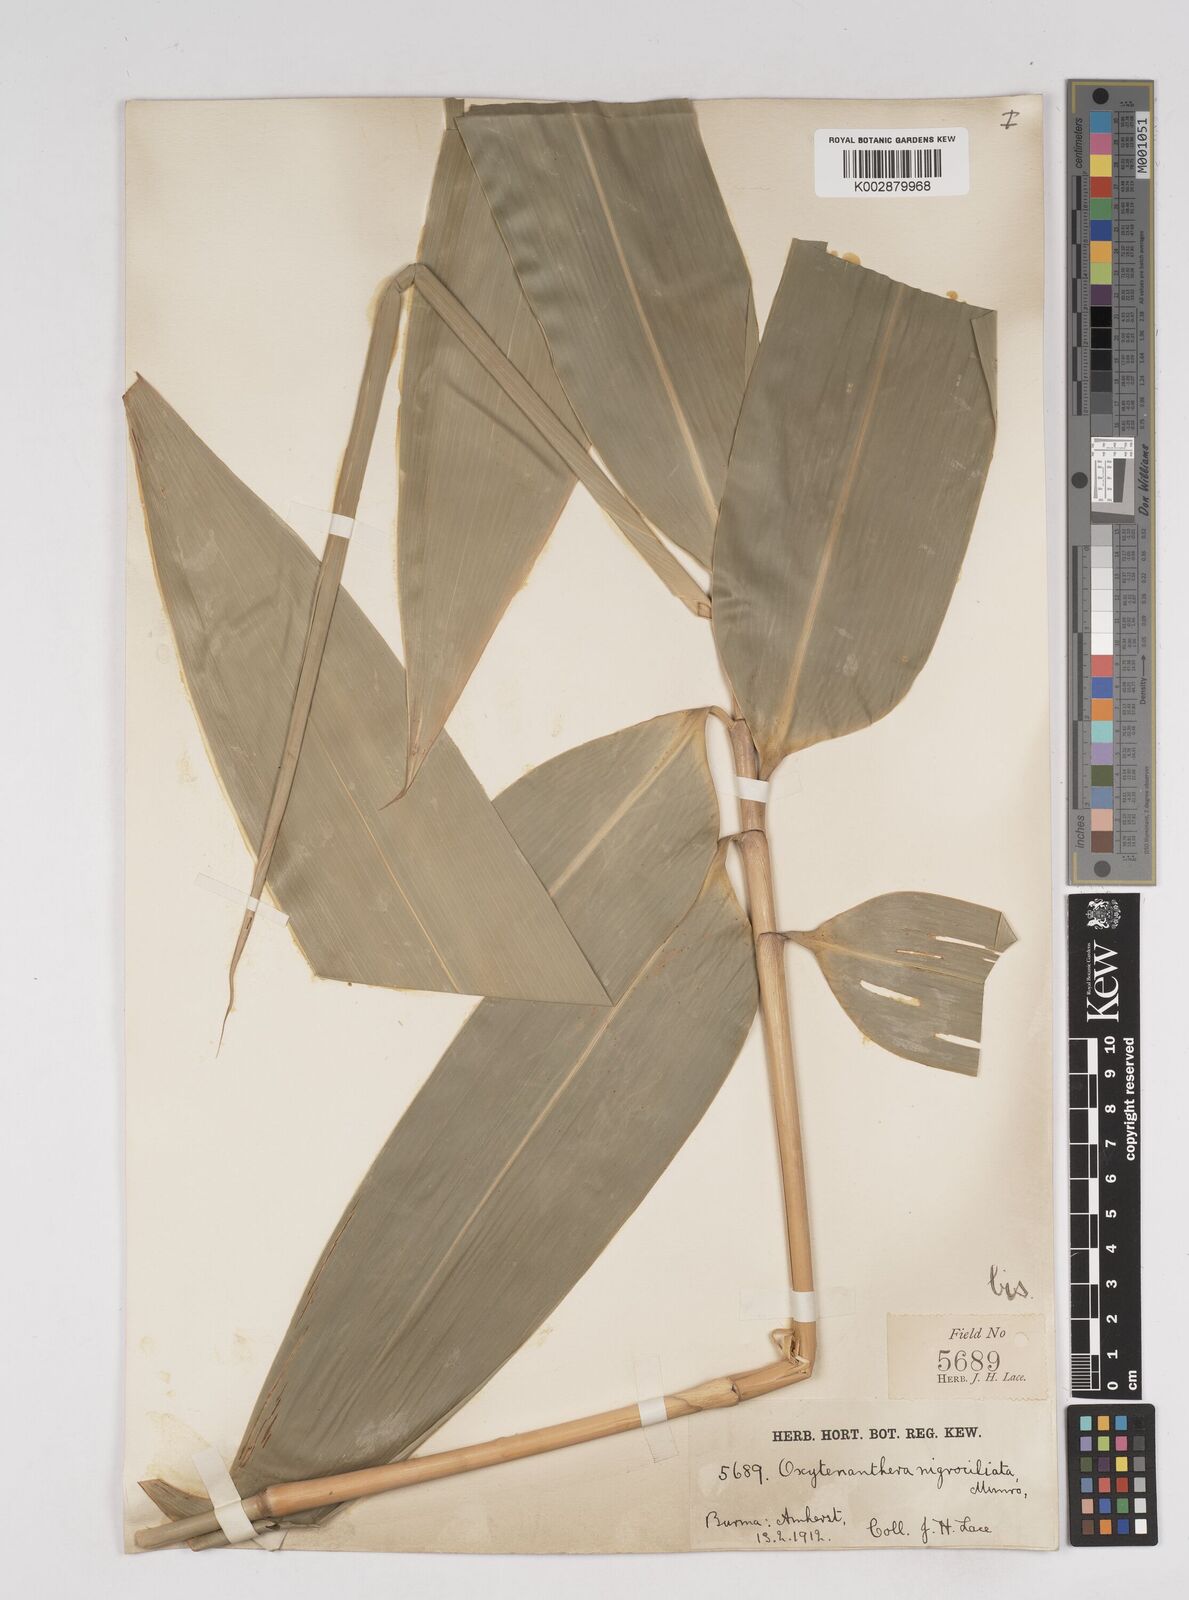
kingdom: Plantae
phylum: Tracheophyta
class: Liliopsida
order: Poales
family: Poaceae
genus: Gigantochloa
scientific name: Gigantochloa nigrociliata
